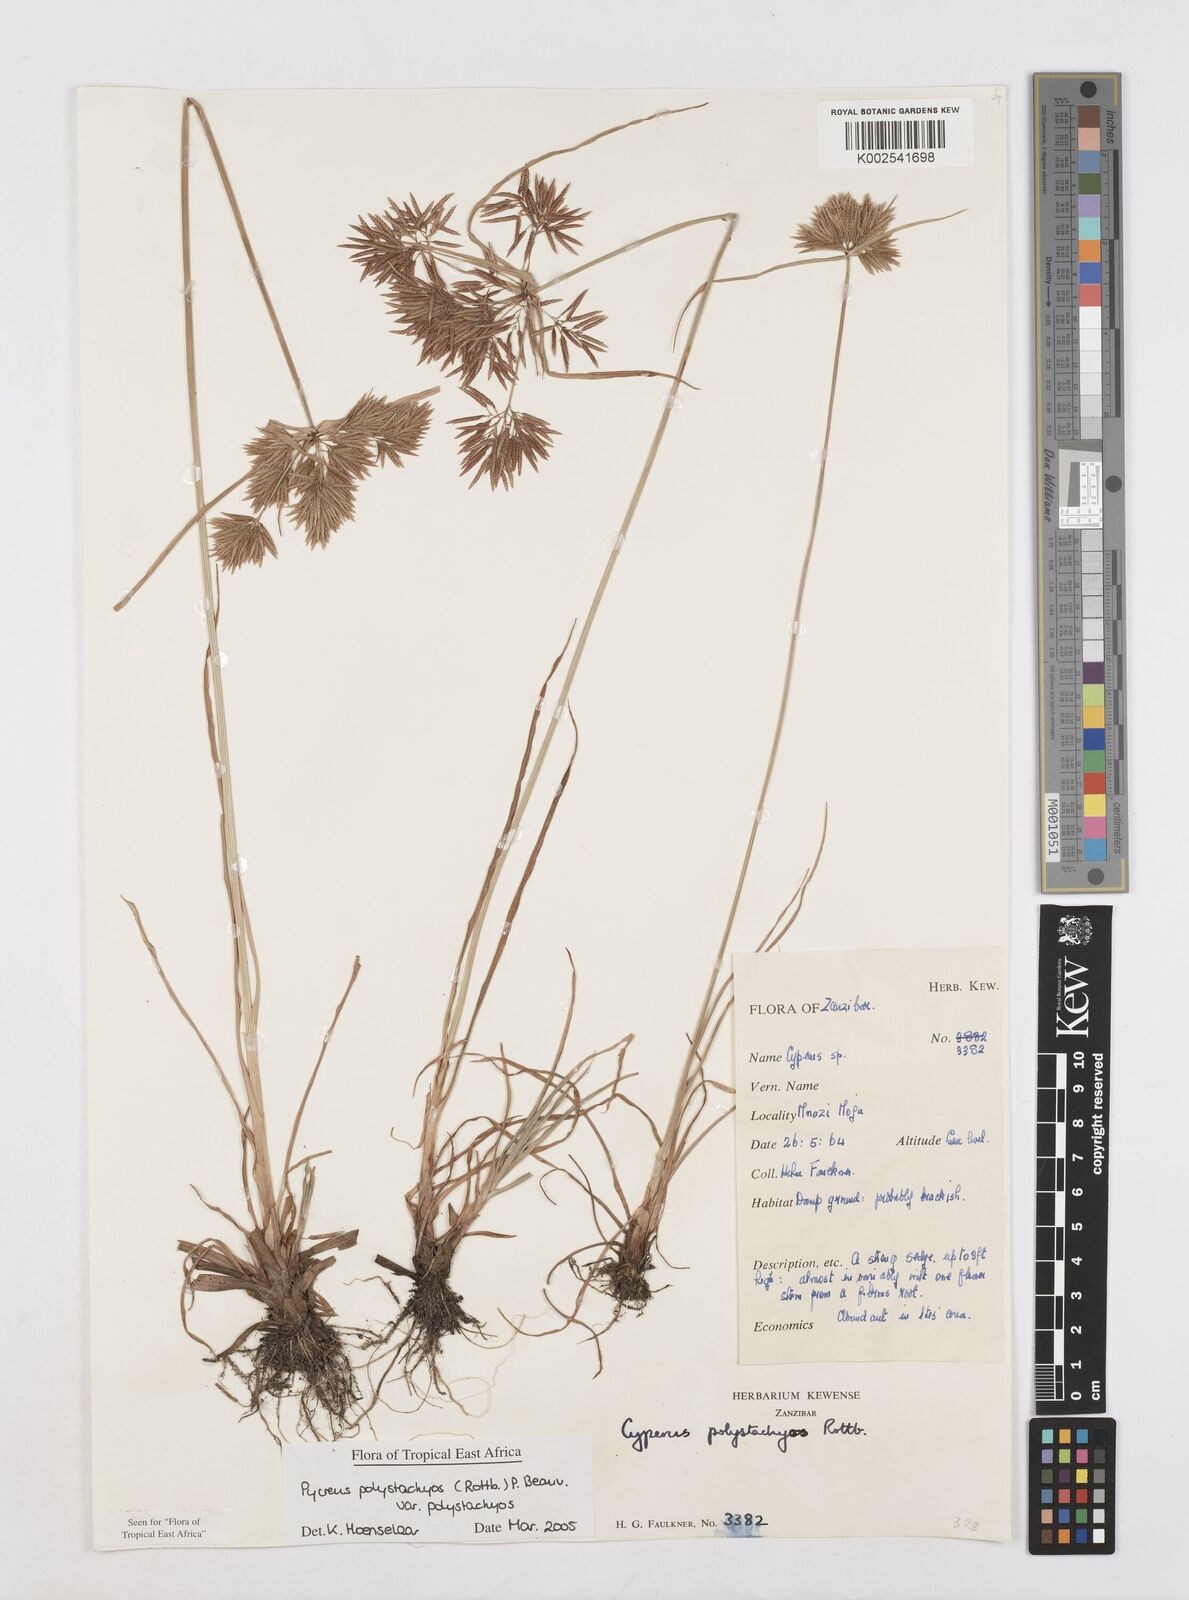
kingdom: Plantae
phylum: Tracheophyta
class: Liliopsida
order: Poales
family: Cyperaceae
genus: Cyperus
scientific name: Cyperus polystachyos
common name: Bunchy flat sedge
